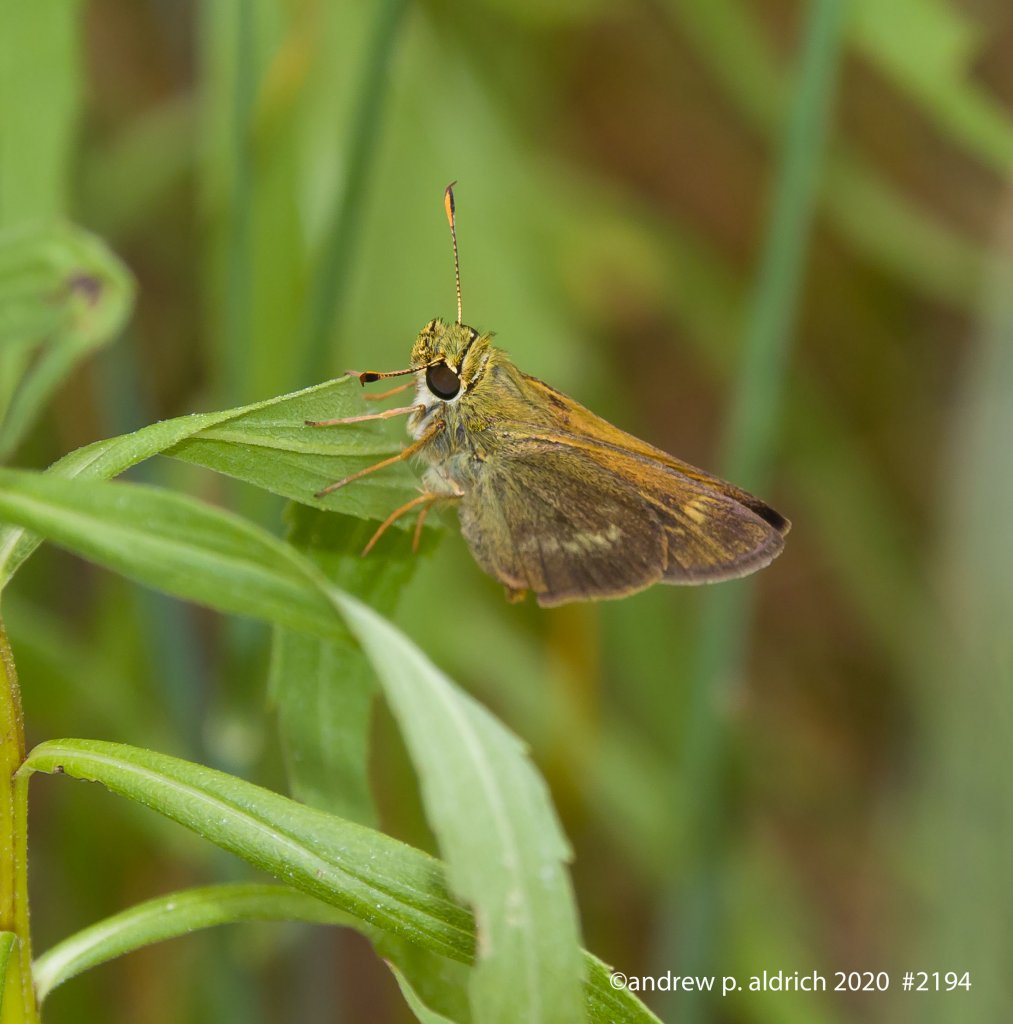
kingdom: Animalia
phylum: Arthropoda
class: Insecta
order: Lepidoptera
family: Hesperiidae
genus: Polites
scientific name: Polites egeremet
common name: Northern Broken-Dash
